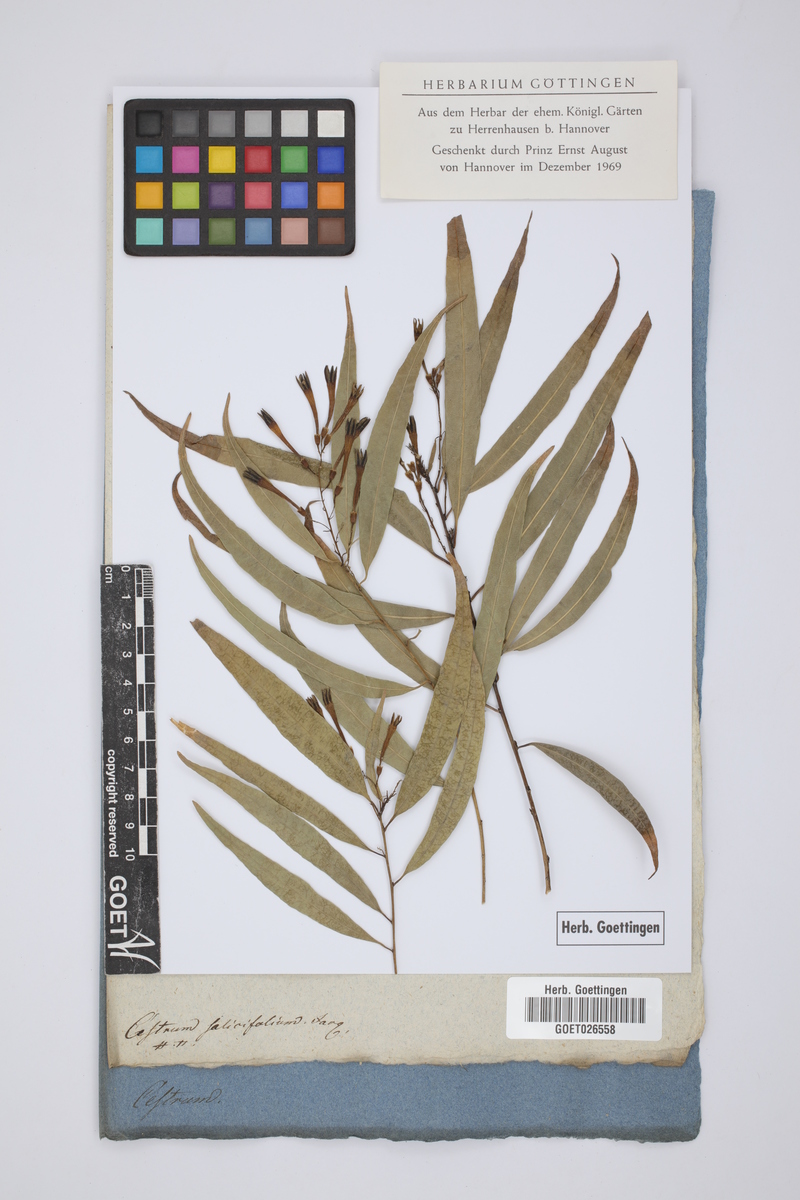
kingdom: Plantae
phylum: Tracheophyta
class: Magnoliopsida
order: Solanales
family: Solanaceae
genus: Cestrum
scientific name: Cestrum salicifolium
